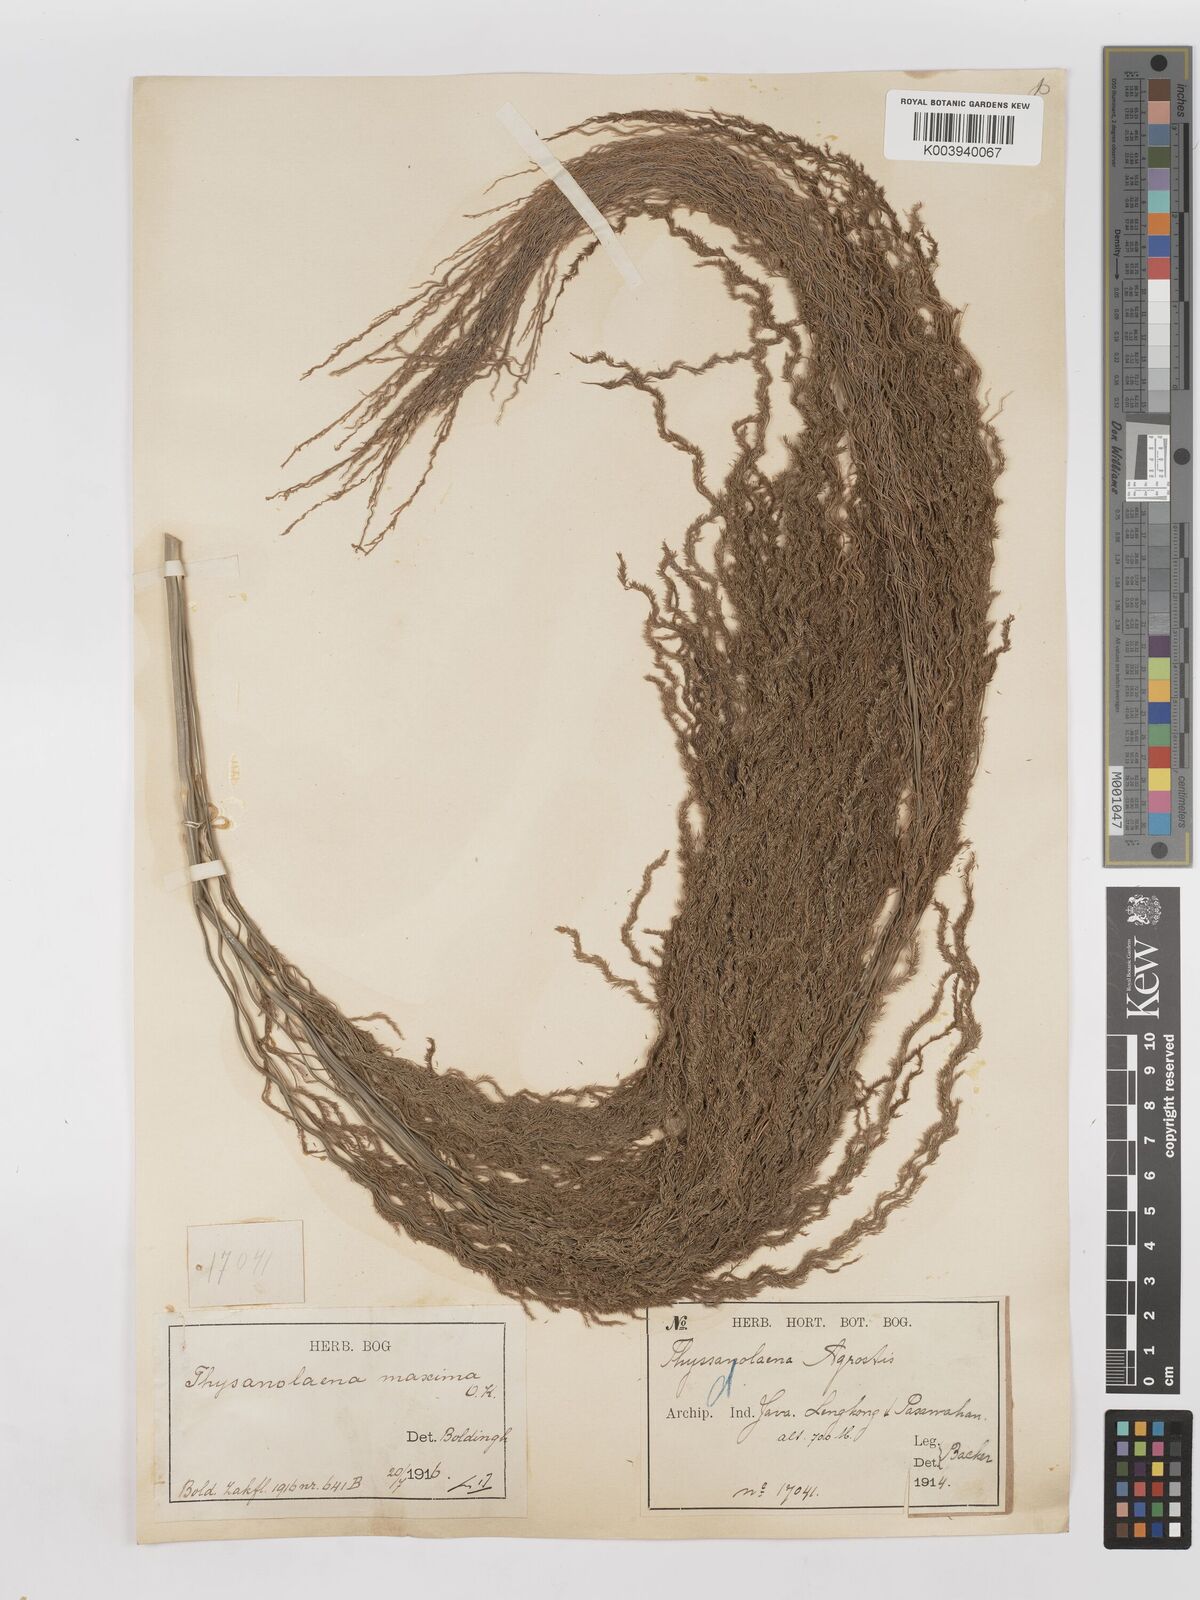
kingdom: Plantae
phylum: Tracheophyta
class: Liliopsida
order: Poales
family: Poaceae
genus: Thysanolaena
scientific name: Thysanolaena latifolia
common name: Tiger grass
